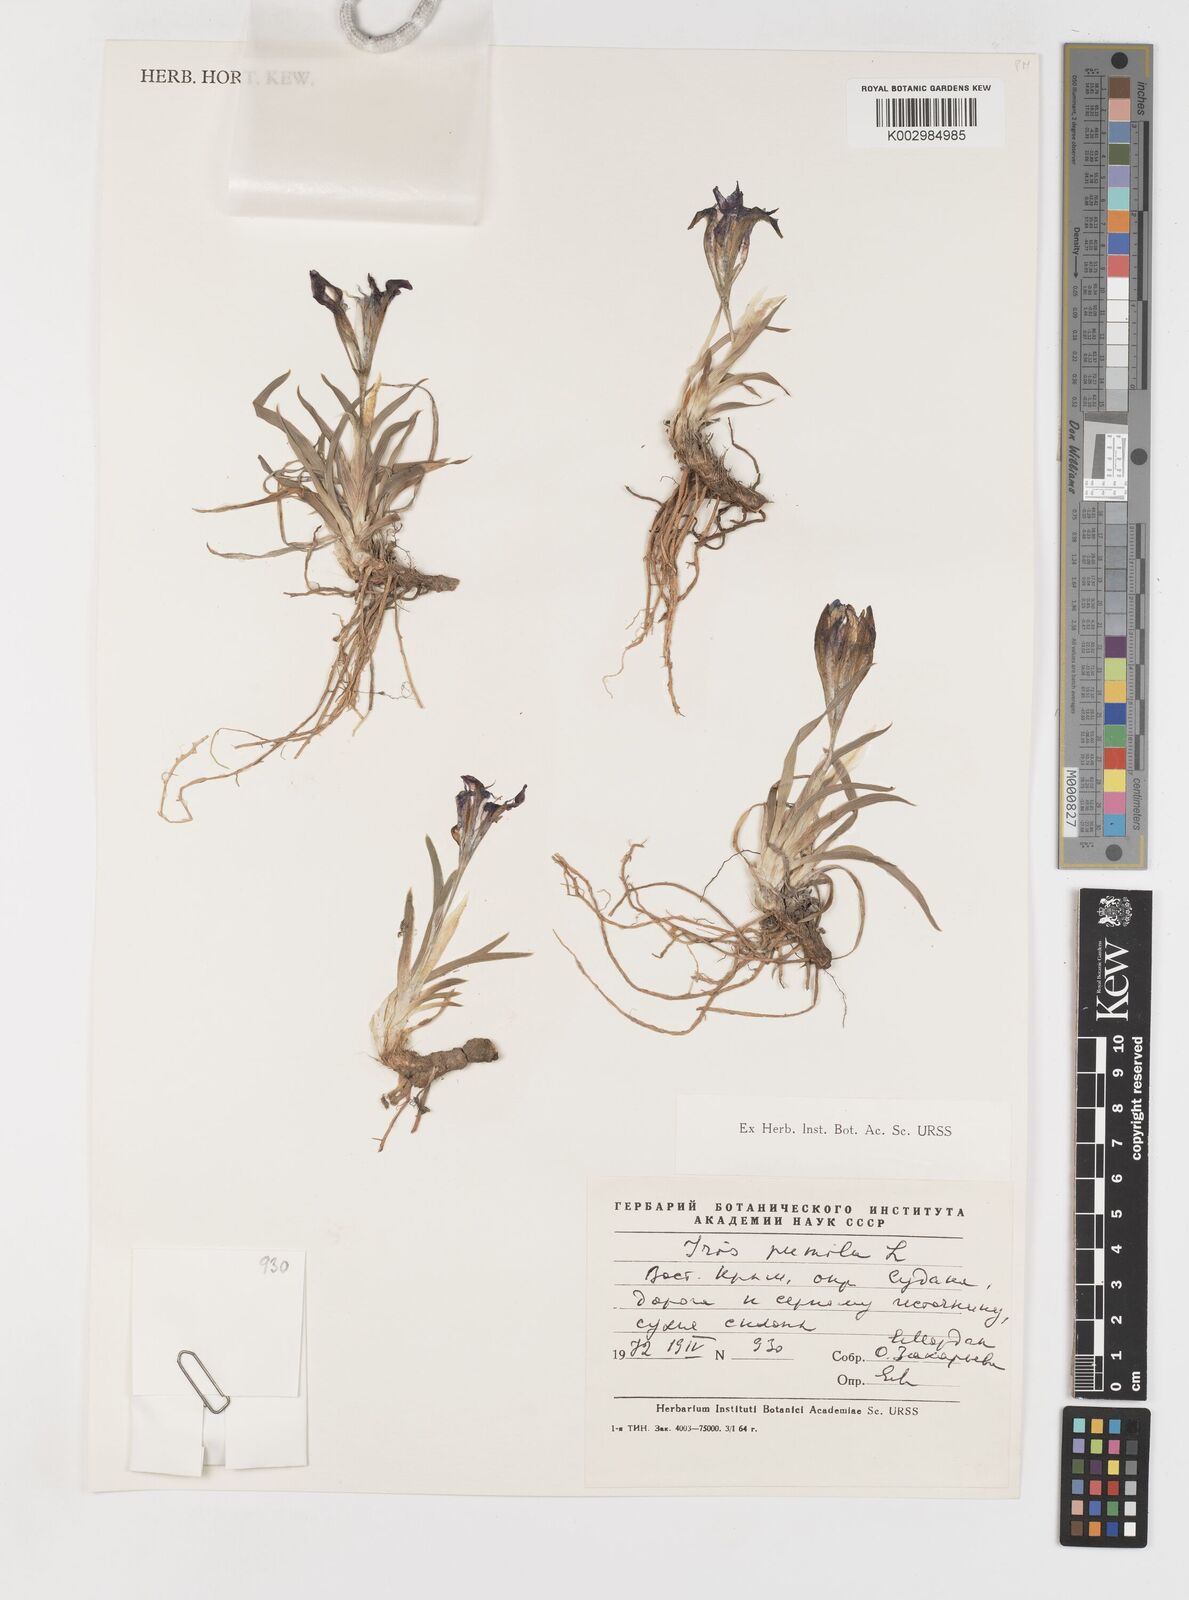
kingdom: Plantae
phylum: Tracheophyta
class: Liliopsida
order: Asparagales
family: Iridaceae
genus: Iris
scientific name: Iris pumila
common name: Dwarf iris
